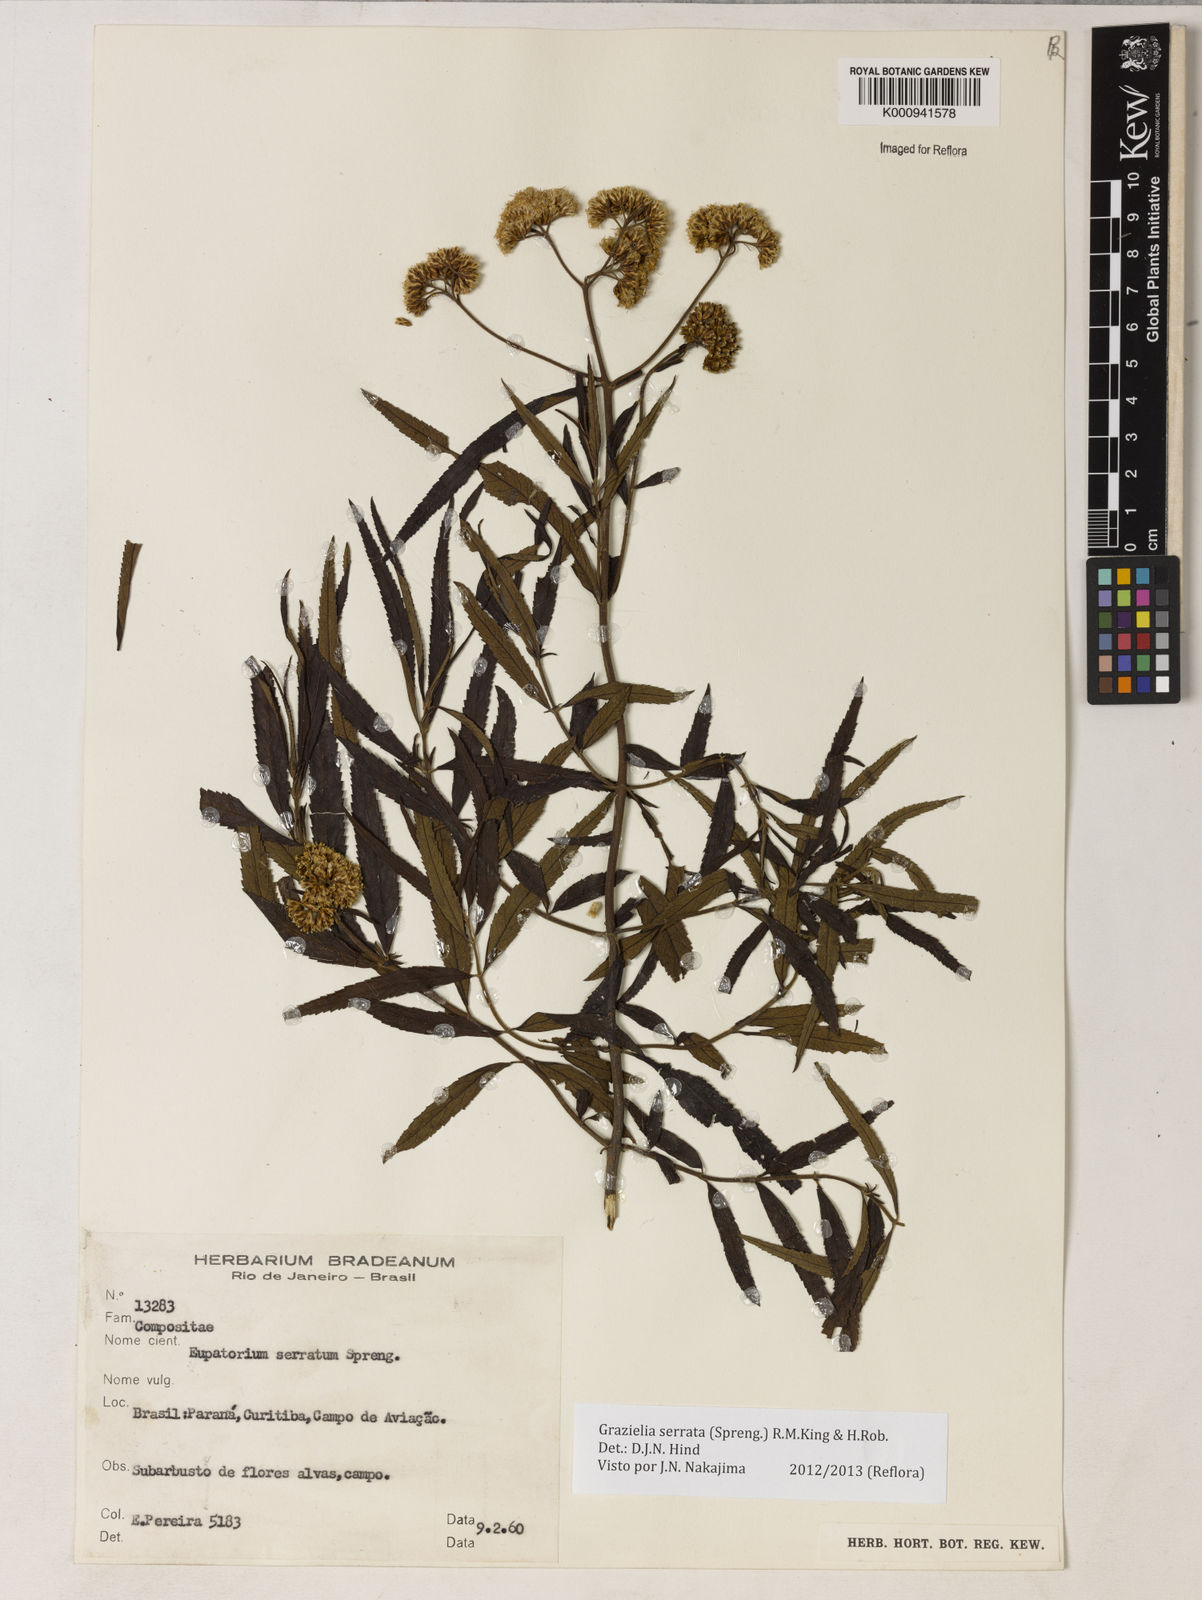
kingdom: Plantae
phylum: Tracheophyta
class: Magnoliopsida
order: Asterales
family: Asteraceae
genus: Grazielia
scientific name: Grazielia serrata
